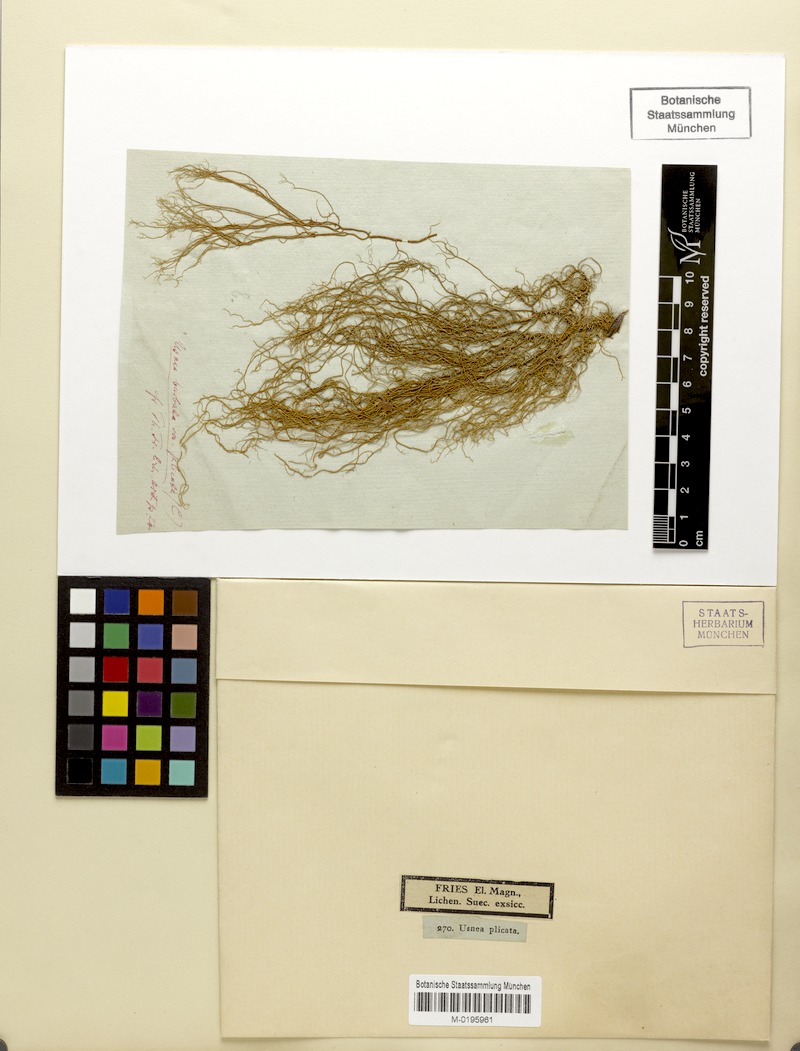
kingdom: Fungi
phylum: Ascomycota
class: Lecanoromycetes
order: Lecanorales
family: Parmeliaceae
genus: Usnea
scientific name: Usnea barbata
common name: Old man's beard lichen
